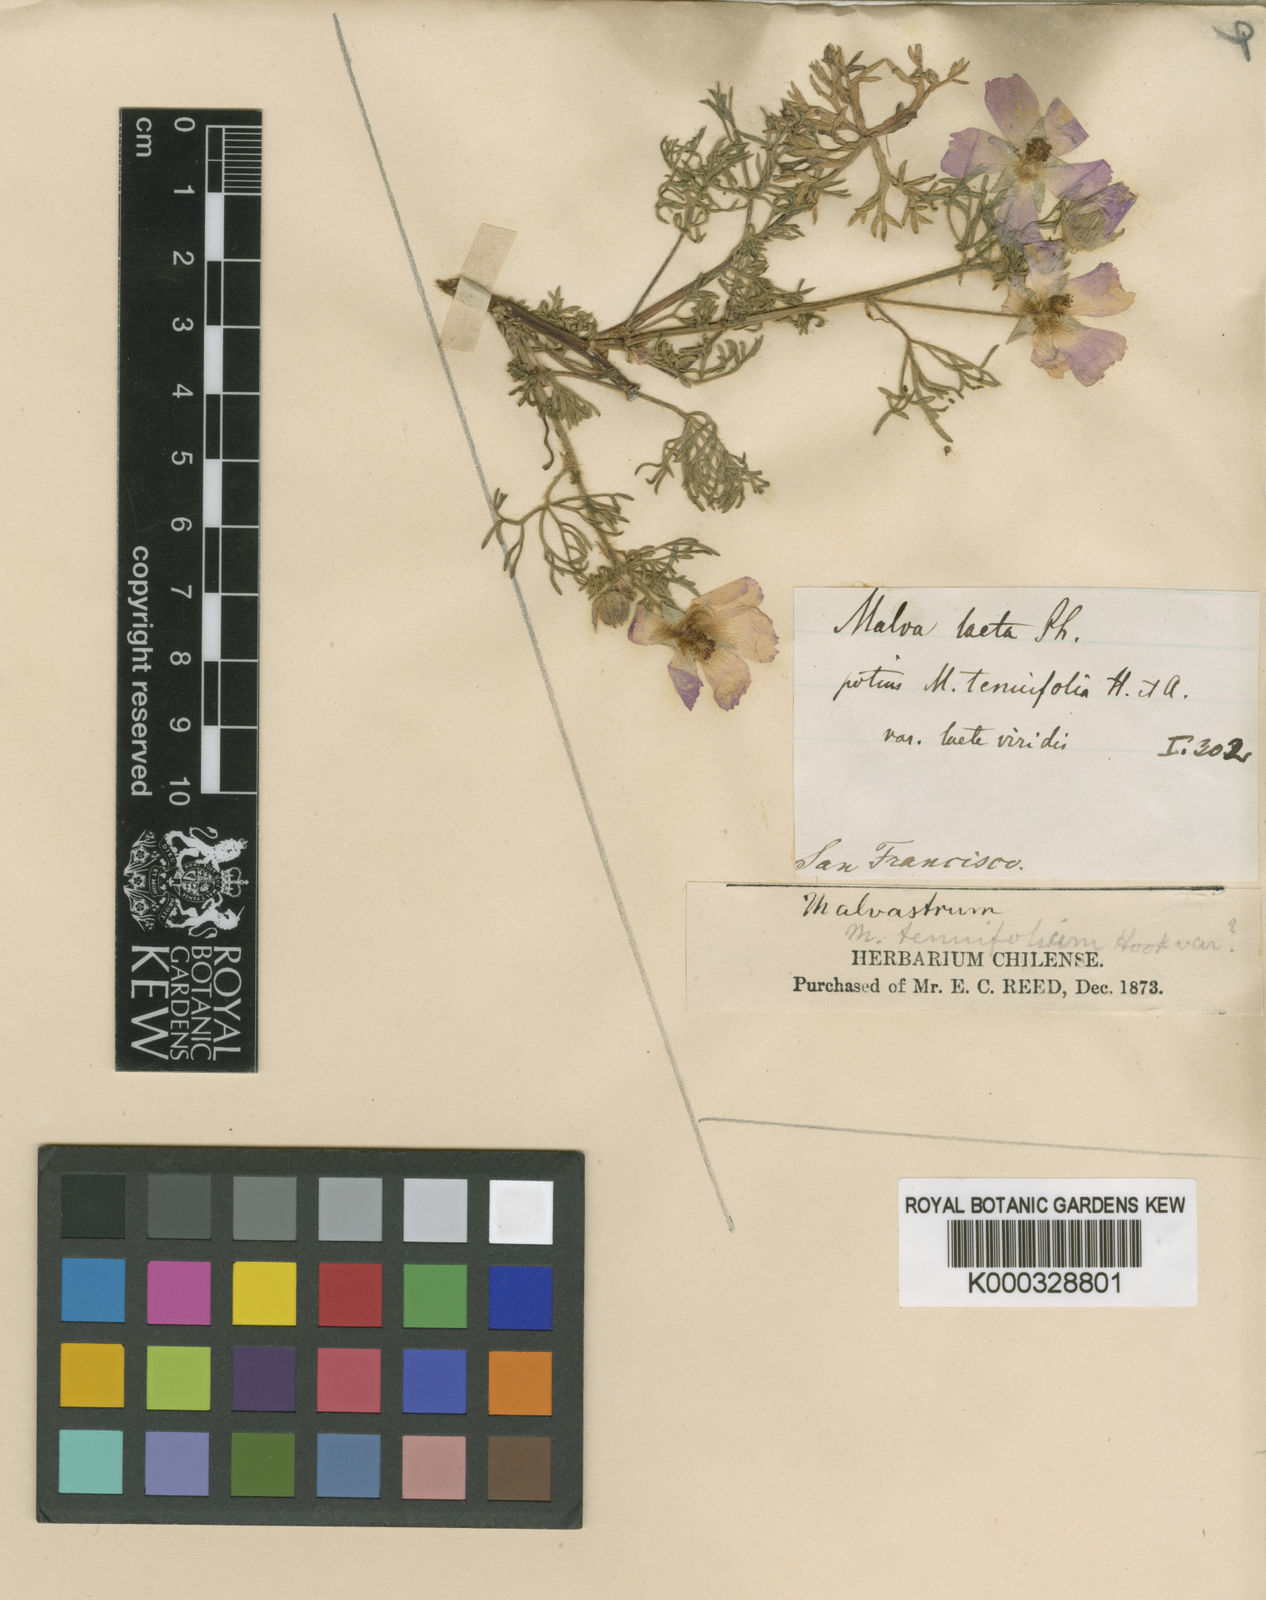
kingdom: Plantae
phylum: Tracheophyta
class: Magnoliopsida
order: Malvales
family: Malvaceae
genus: Sphaeralcea
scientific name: Sphaeralcea purpurata
